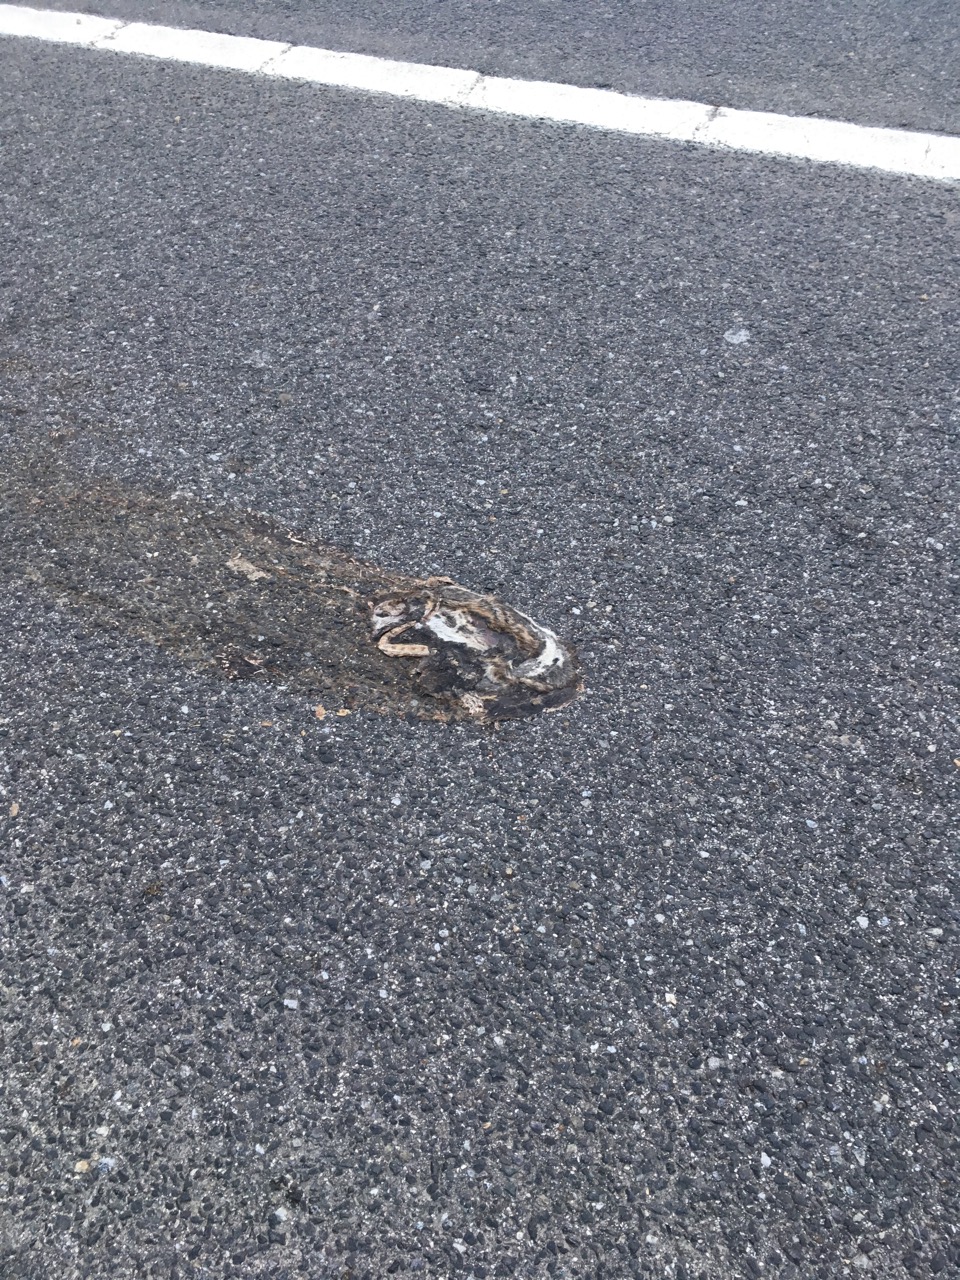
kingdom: Animalia
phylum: Chordata
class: Mammalia
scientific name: Mammalia
